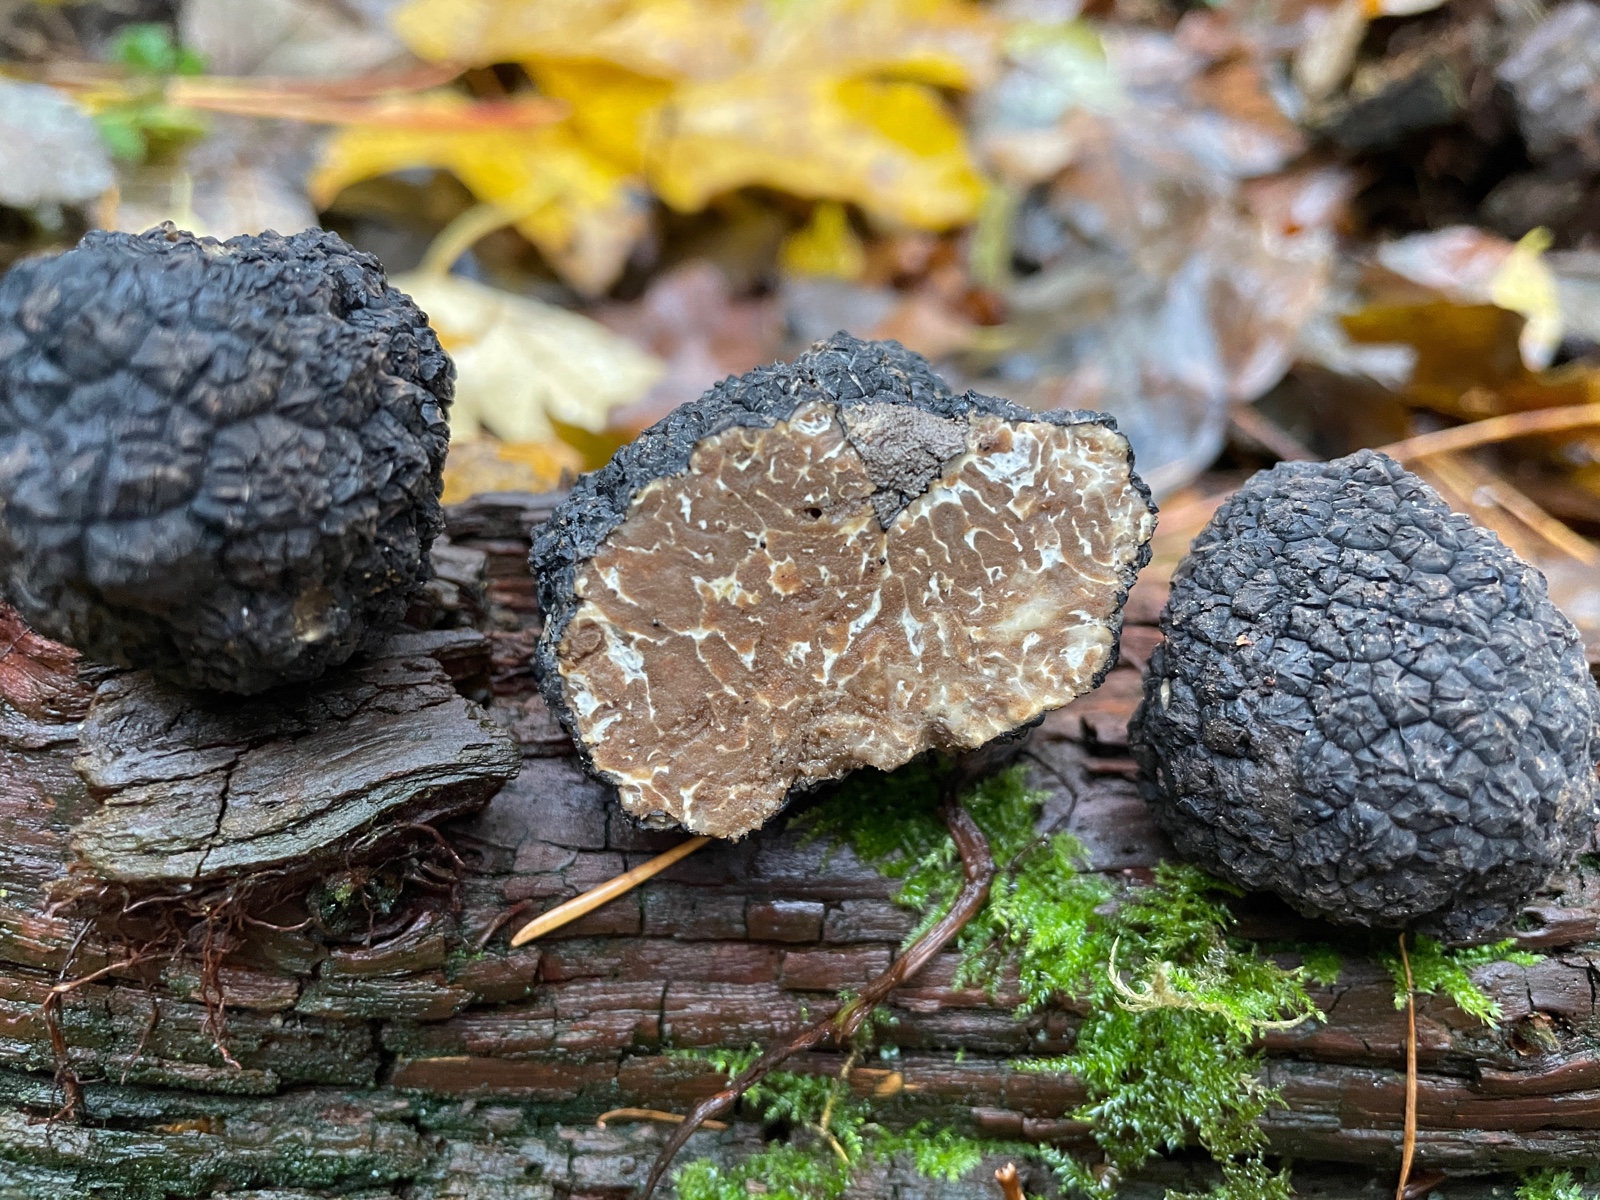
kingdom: Fungi
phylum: Ascomycota
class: Pezizomycetes
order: Pezizales
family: Tuberaceae
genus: Tuber
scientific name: Tuber aestivum
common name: sommer-trøffel
